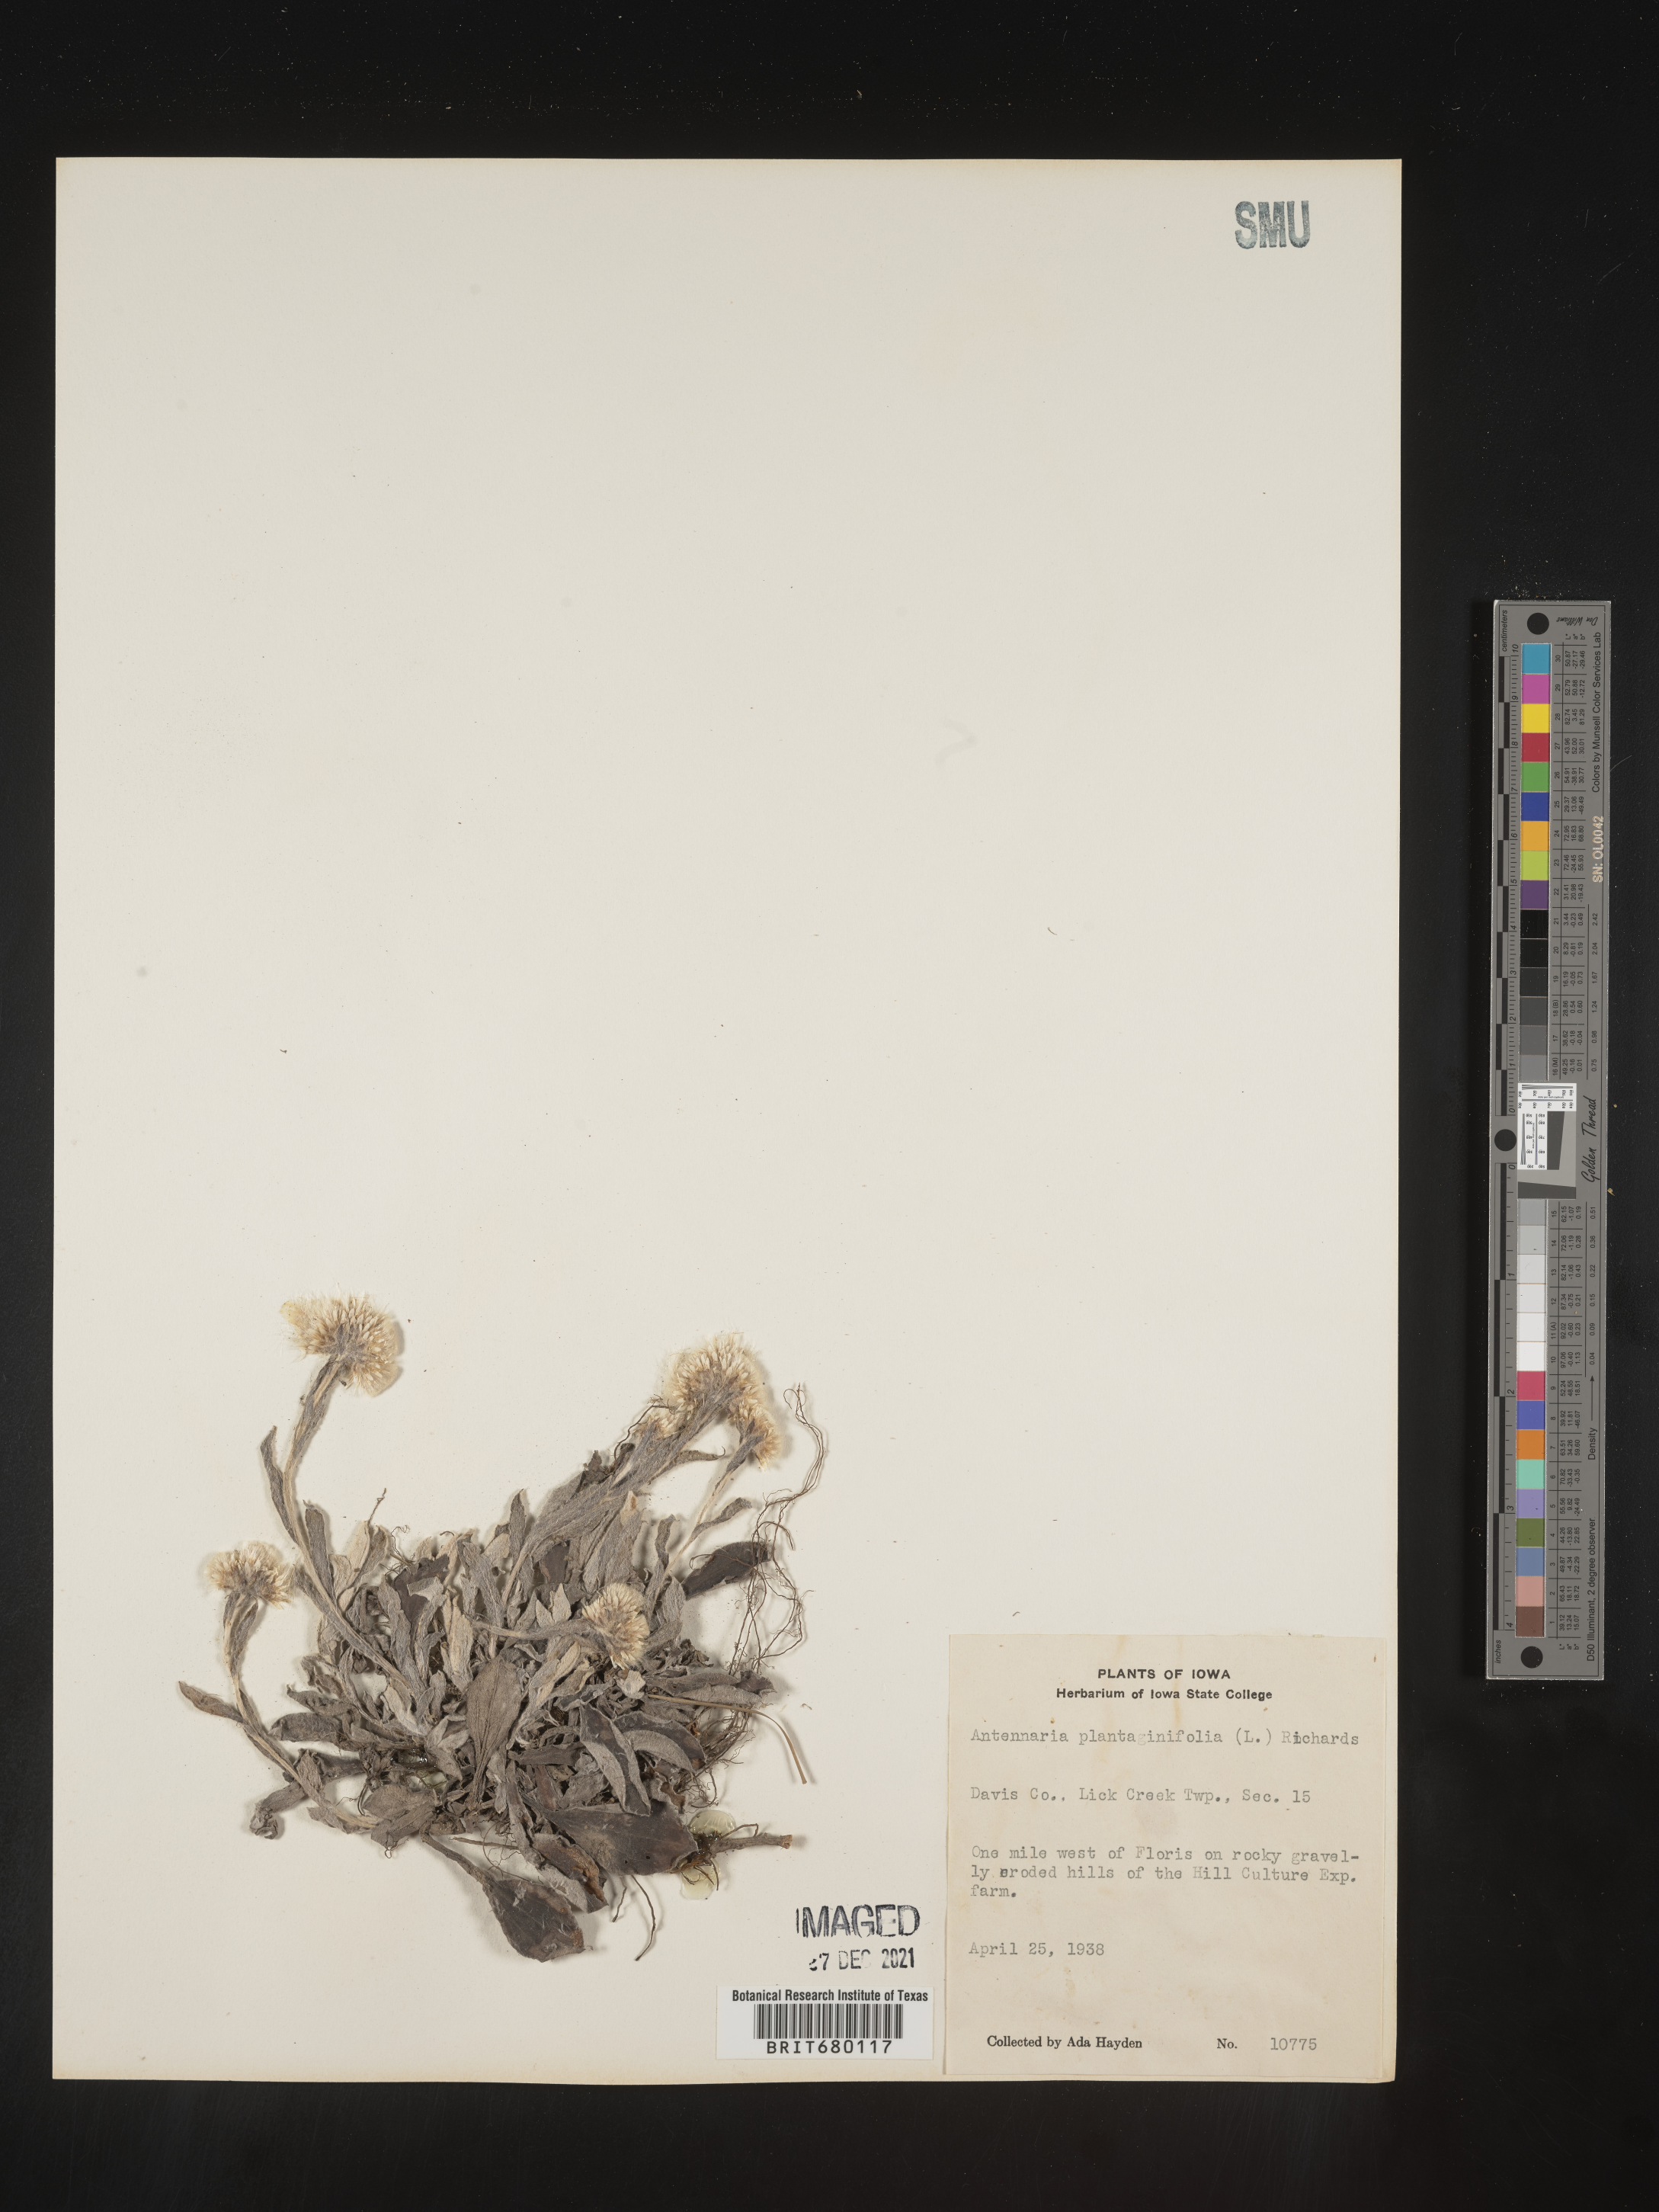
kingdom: Plantae
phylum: Tracheophyta
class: Magnoliopsida
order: Asterales
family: Asteraceae
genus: Antennaria
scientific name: Antennaria plantaginifolia
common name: Plantain-leaved pussytoes
